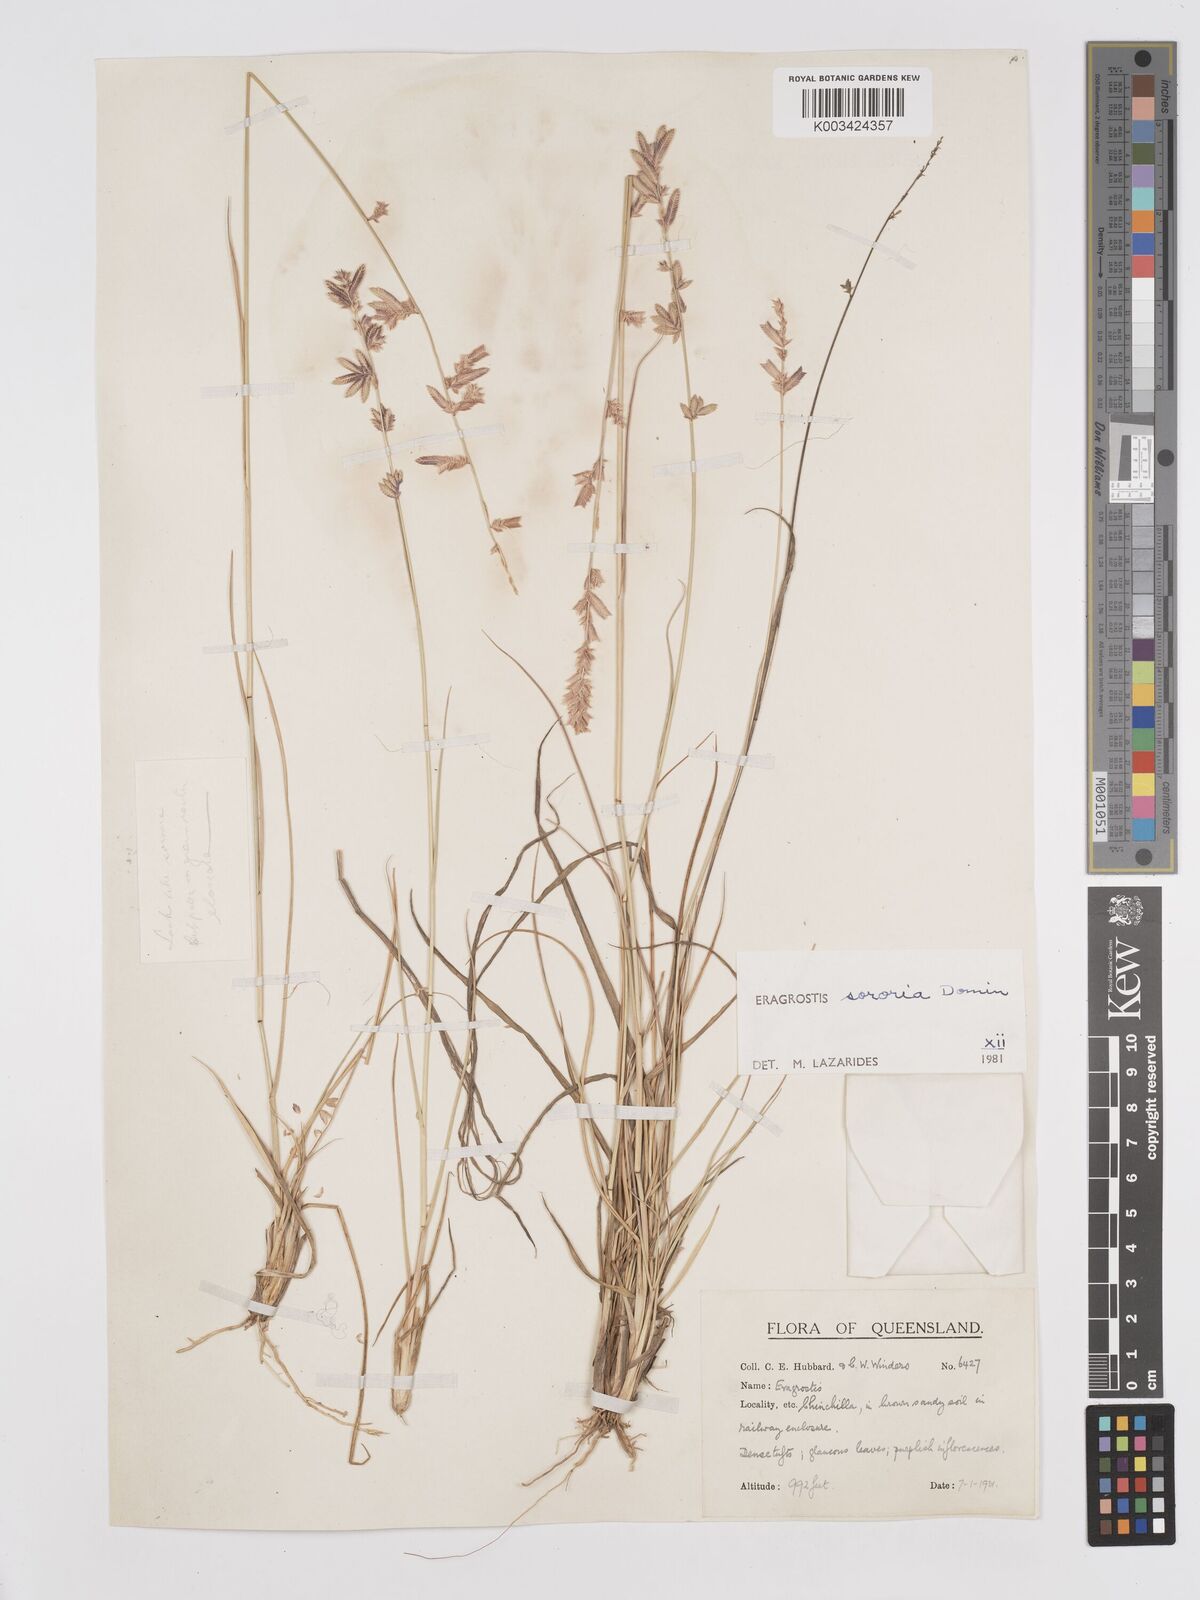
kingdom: Plantae
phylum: Tracheophyta
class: Liliopsida
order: Poales
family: Poaceae
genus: Eragrostis
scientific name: Eragrostis sororia
